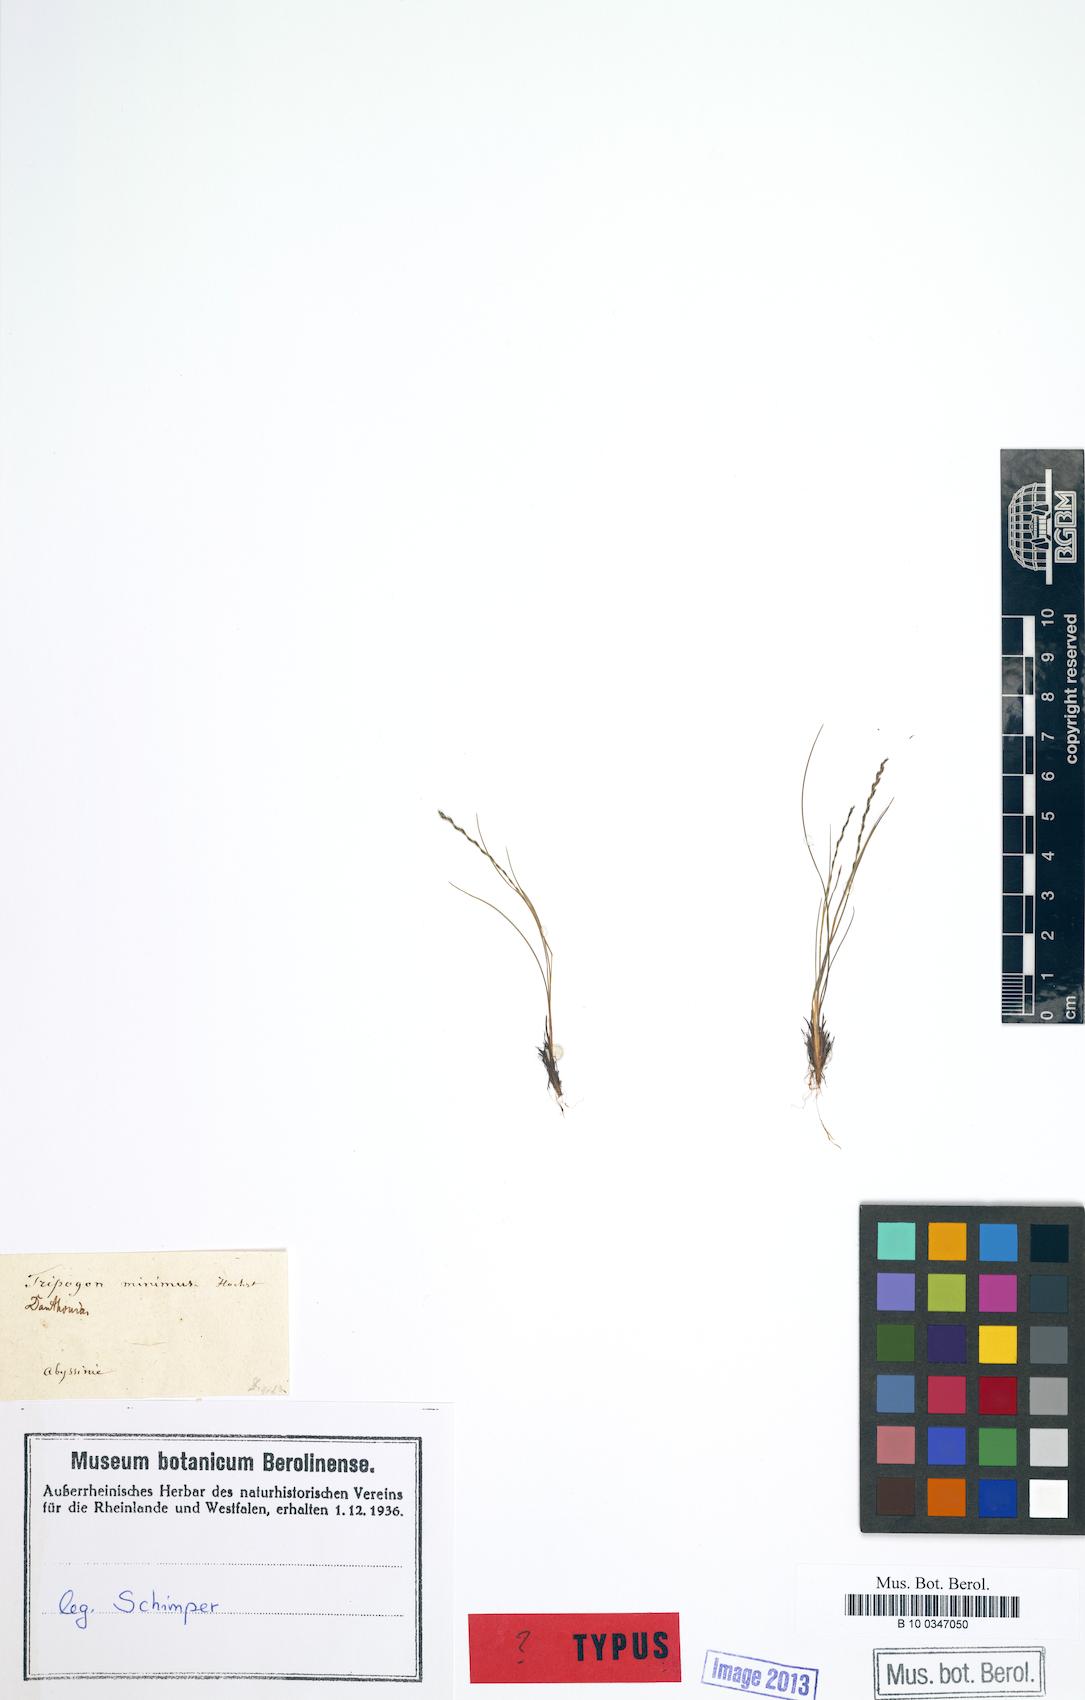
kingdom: Plantae
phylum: Tracheophyta
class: Liliopsida
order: Poales
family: Poaceae
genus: Tripogonella
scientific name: Tripogonella minima
